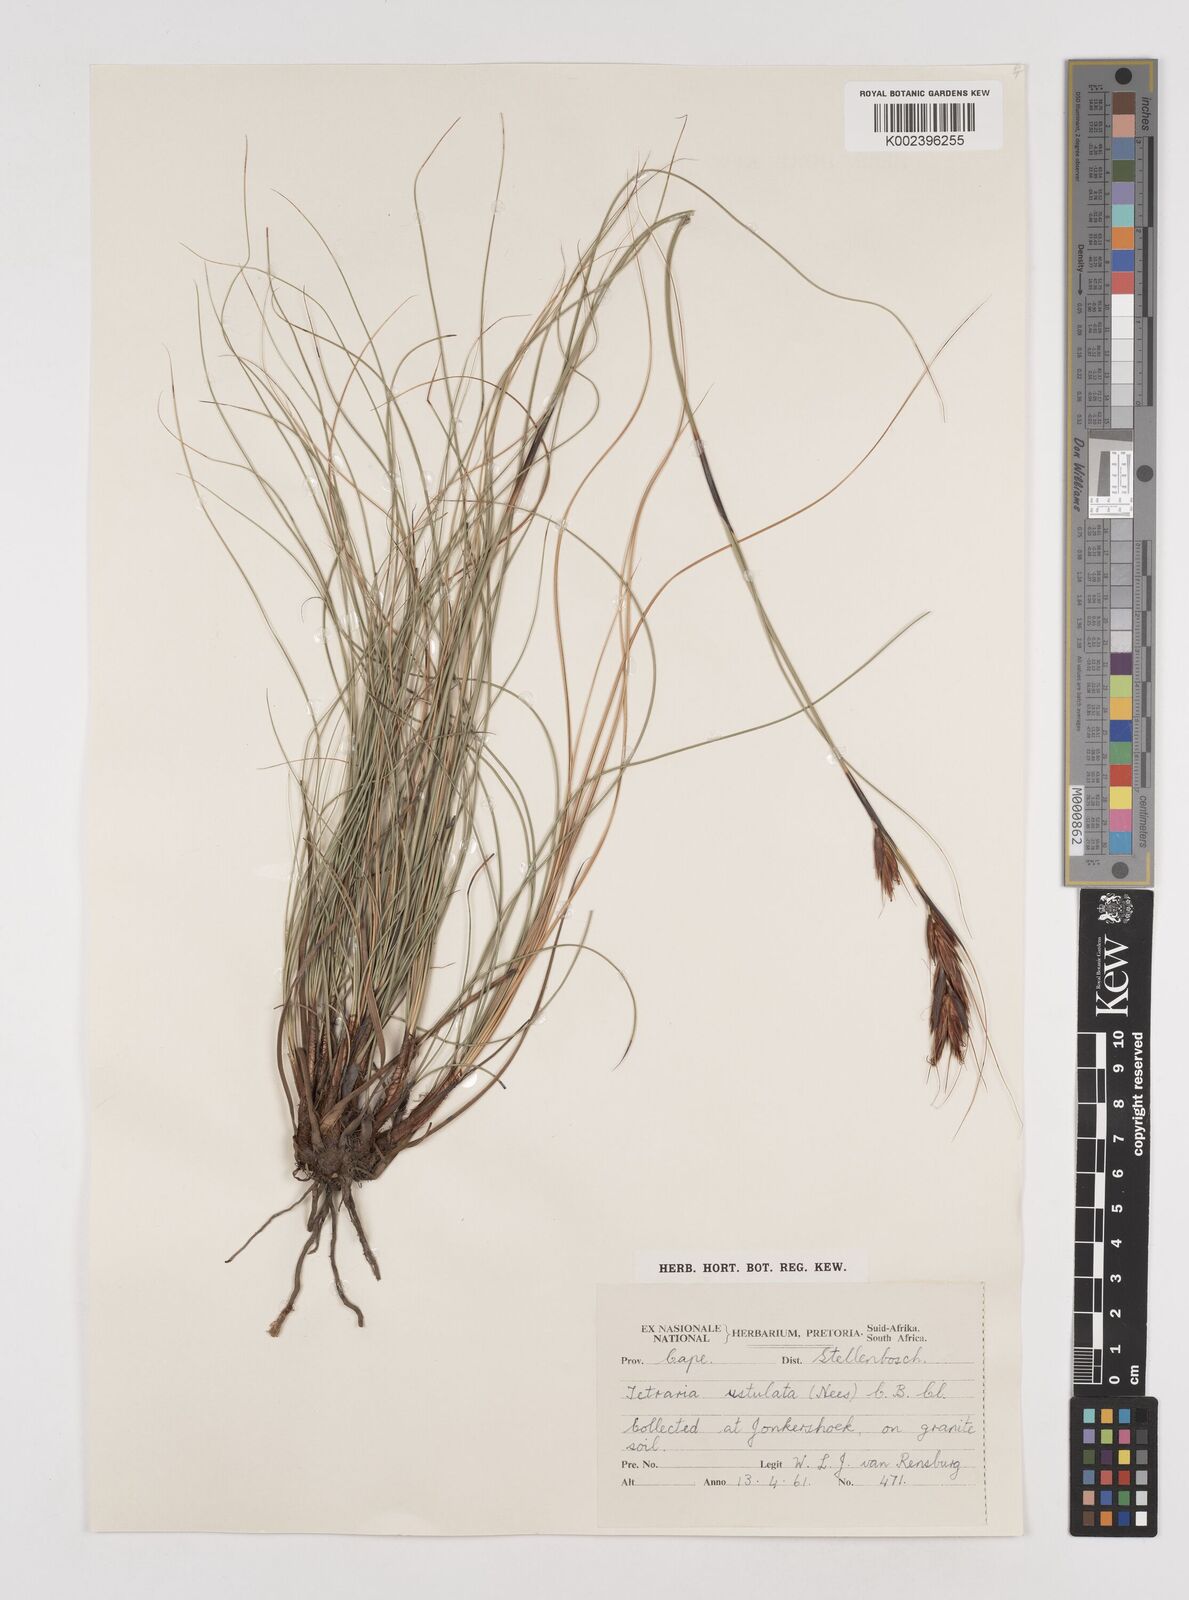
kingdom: Plantae
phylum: Tracheophyta
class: Liliopsida
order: Poales
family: Cyperaceae
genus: Tetraria
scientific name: Tetraria ustulata
